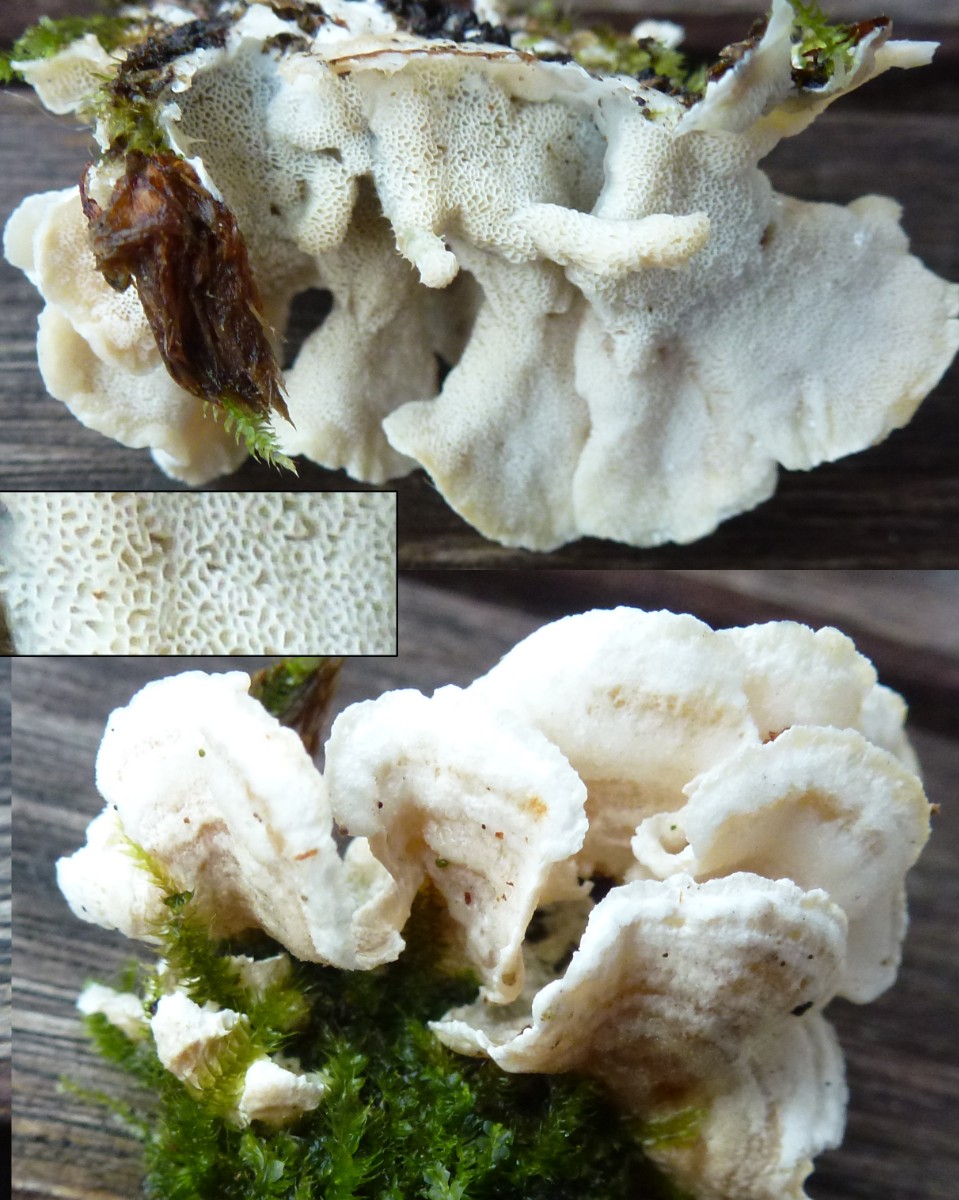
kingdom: Fungi
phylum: Basidiomycota
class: Agaricomycetes
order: Polyporales
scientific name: Polyporales
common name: poresvampordenen
